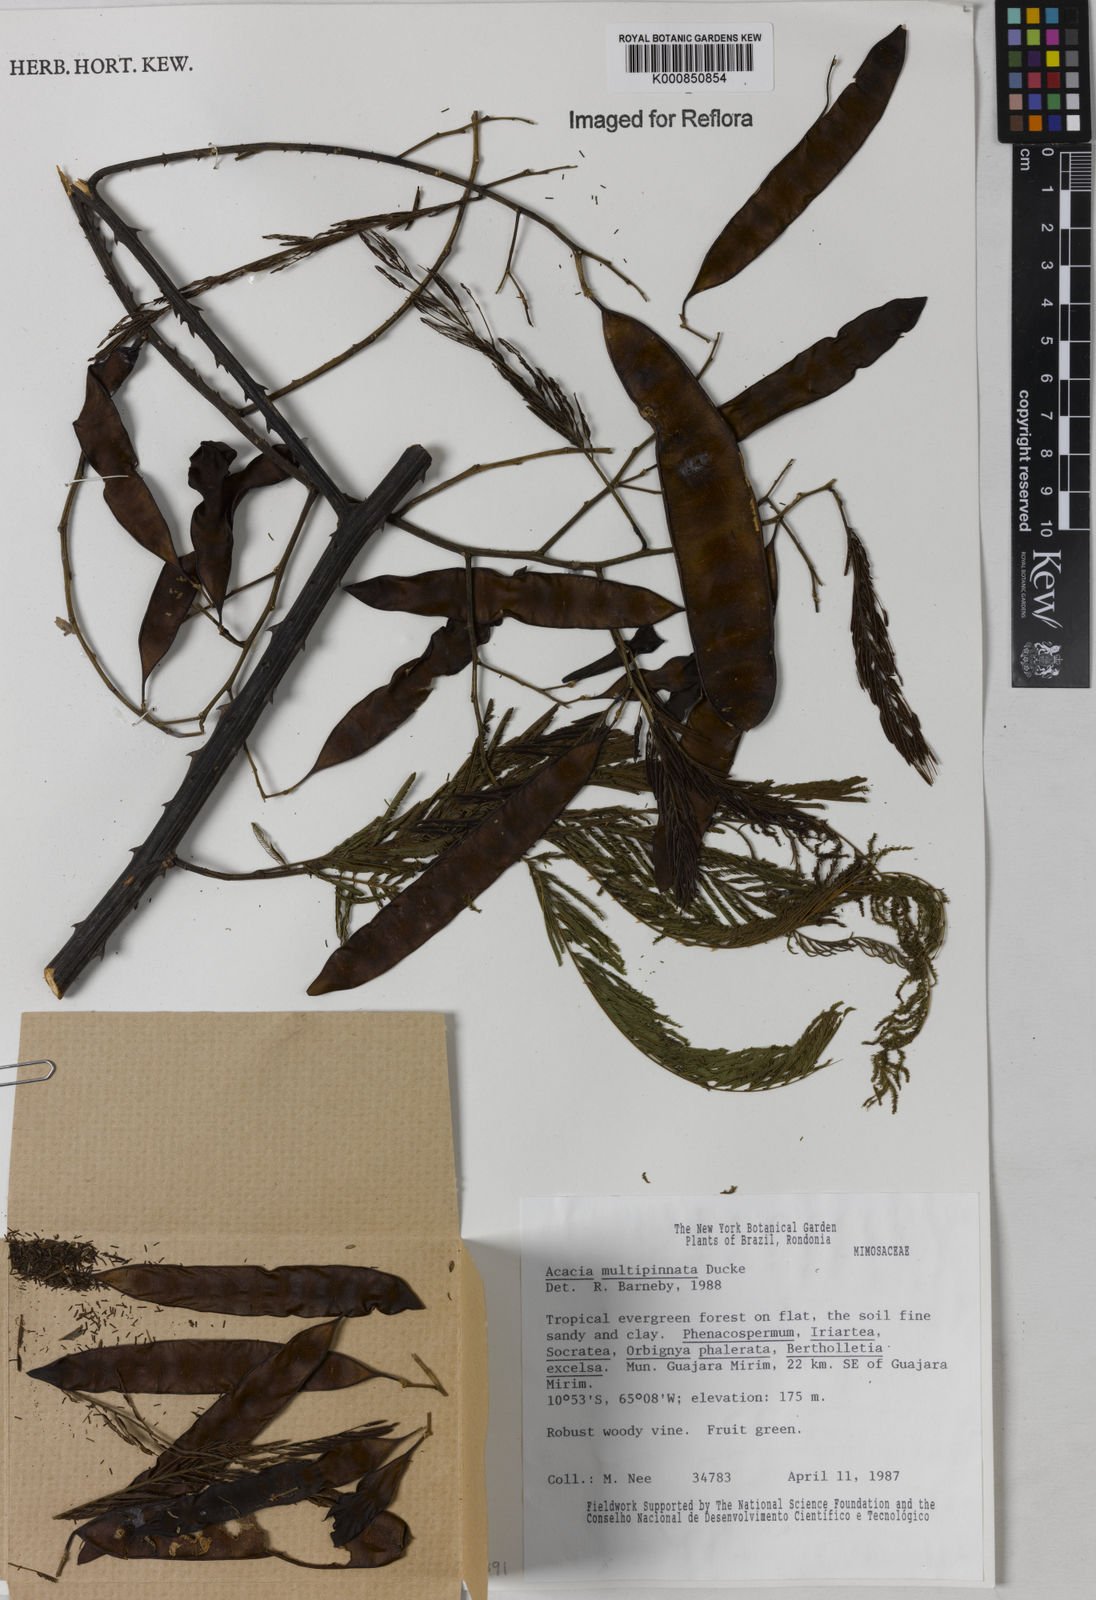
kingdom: Plantae
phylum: Tracheophyta
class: Magnoliopsida
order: Fabales
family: Fabaceae
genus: Senegalia
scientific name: Senegalia paniculata
